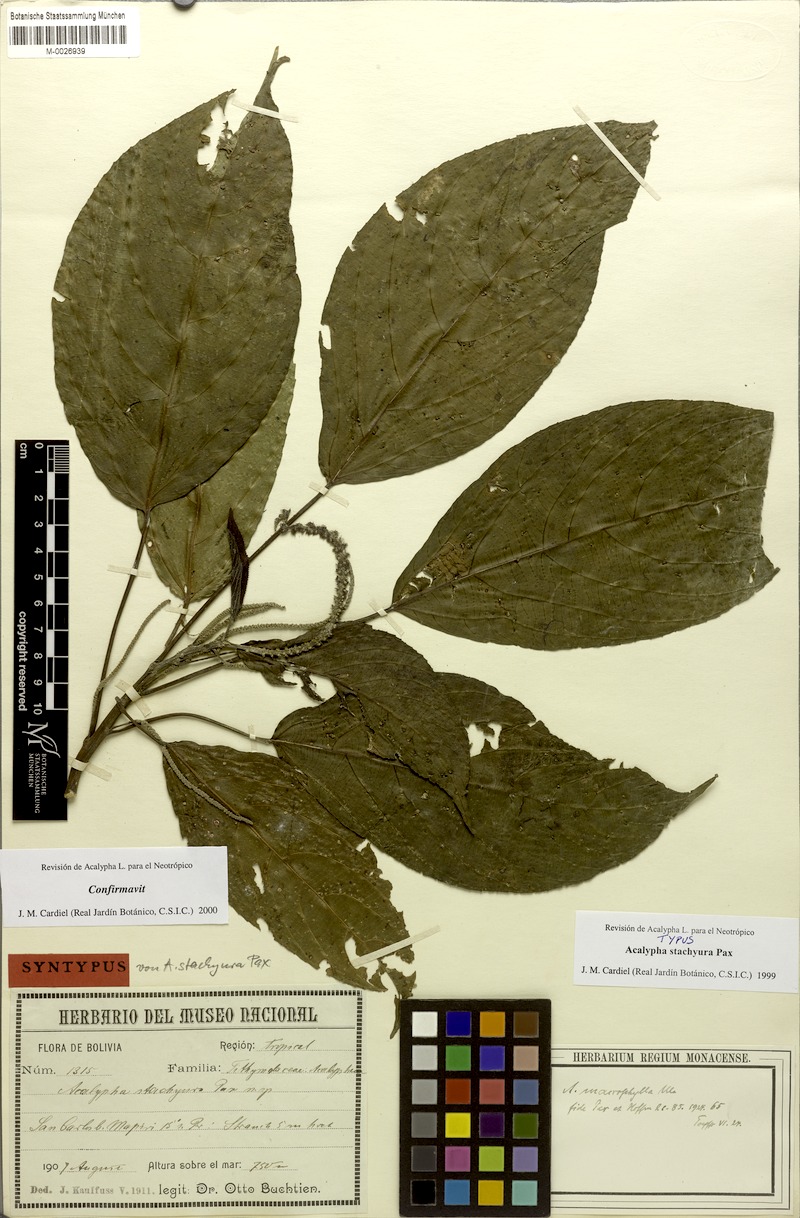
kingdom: Plantae
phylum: Tracheophyta
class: Magnoliopsida
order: Malpighiales
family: Euphorbiaceae
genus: Acalypha
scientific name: Acalypha stachyura
